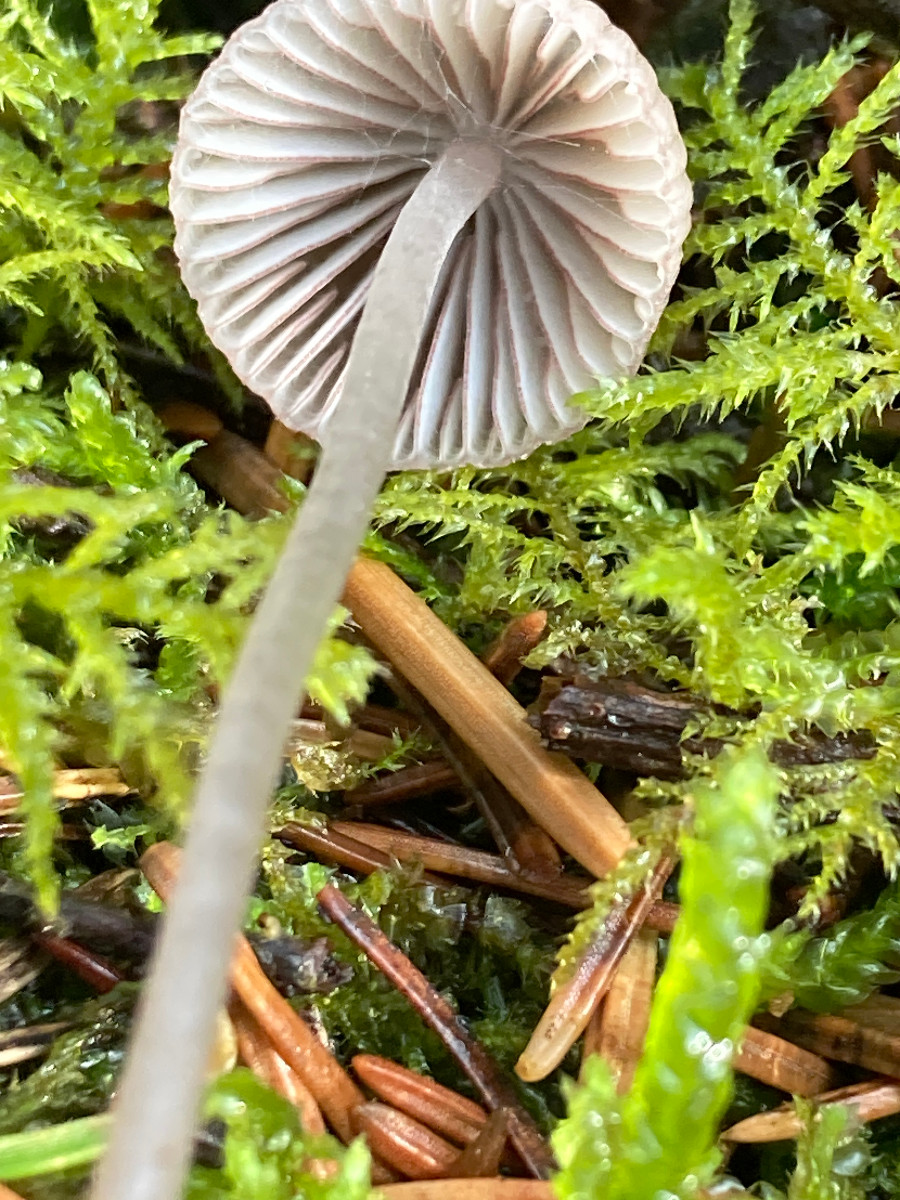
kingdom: Fungi
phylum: Basidiomycota
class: Agaricomycetes
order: Agaricales
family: Mycenaceae
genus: Mycena
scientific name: Mycena rubromarginata
